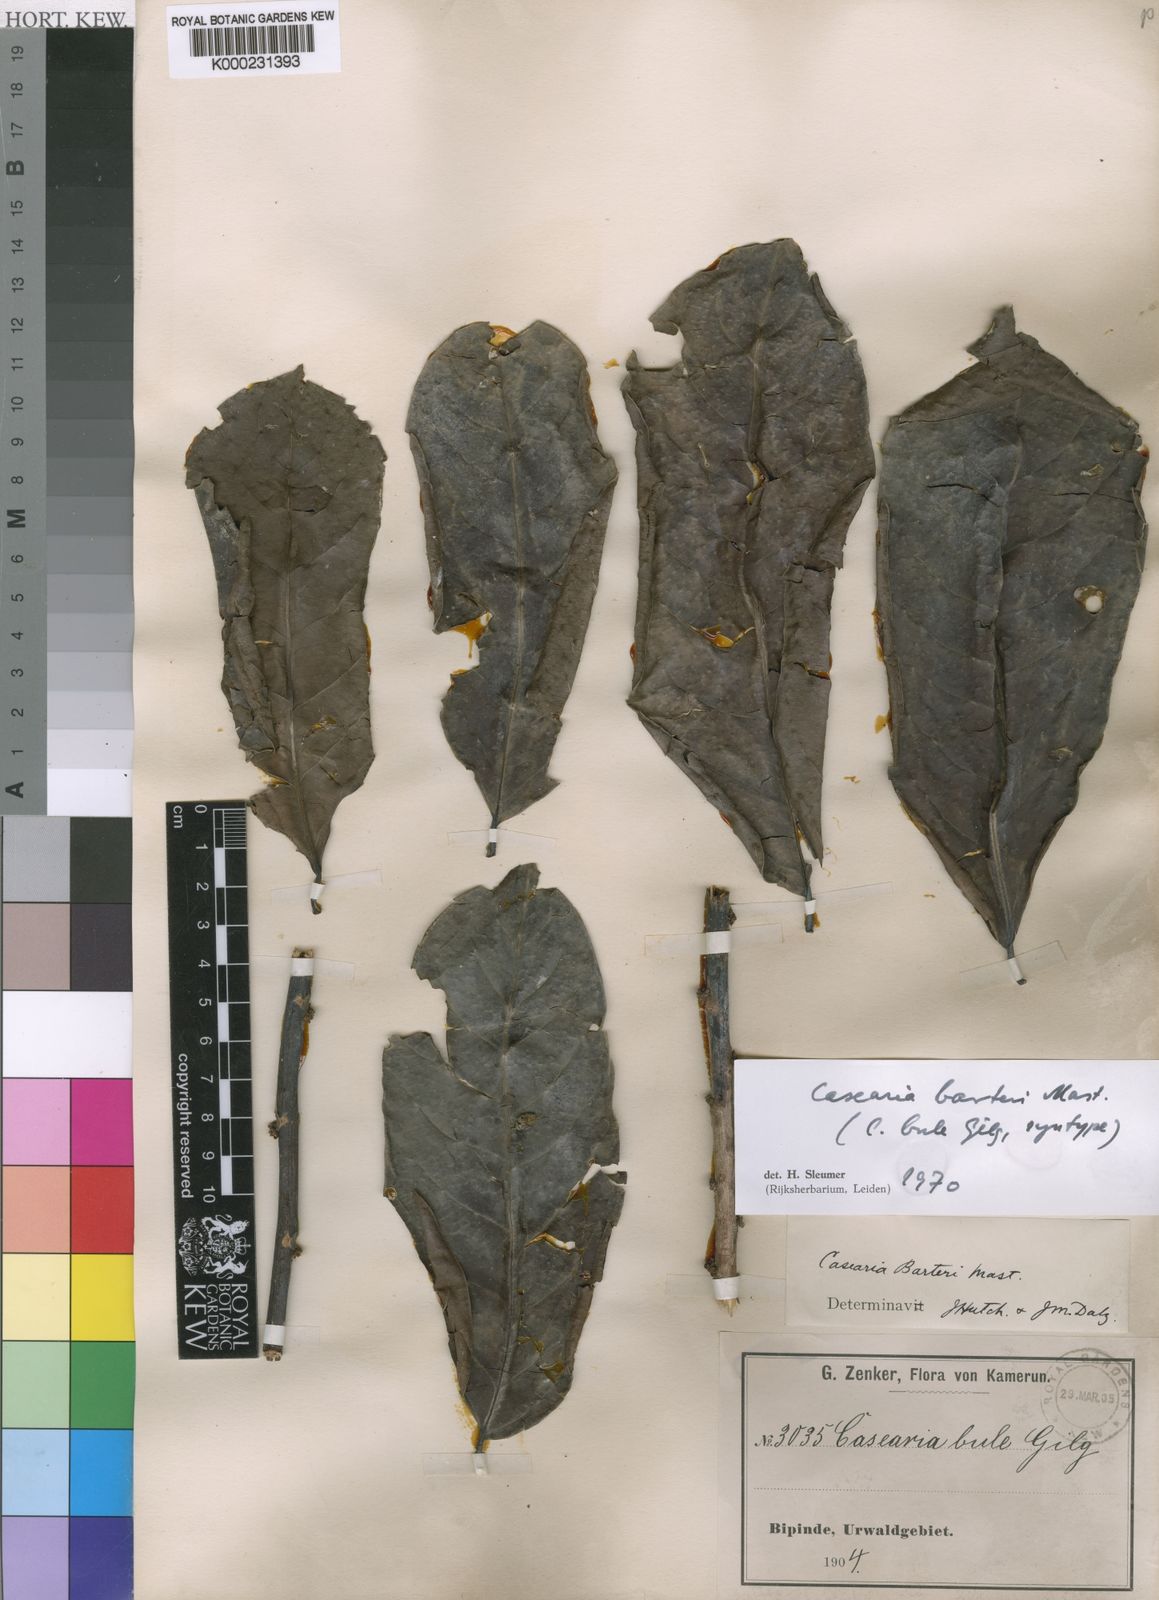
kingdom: Plantae
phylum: Tracheophyta
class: Magnoliopsida
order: Malpighiales
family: Salicaceae
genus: Casearia
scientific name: Casearia barteri
